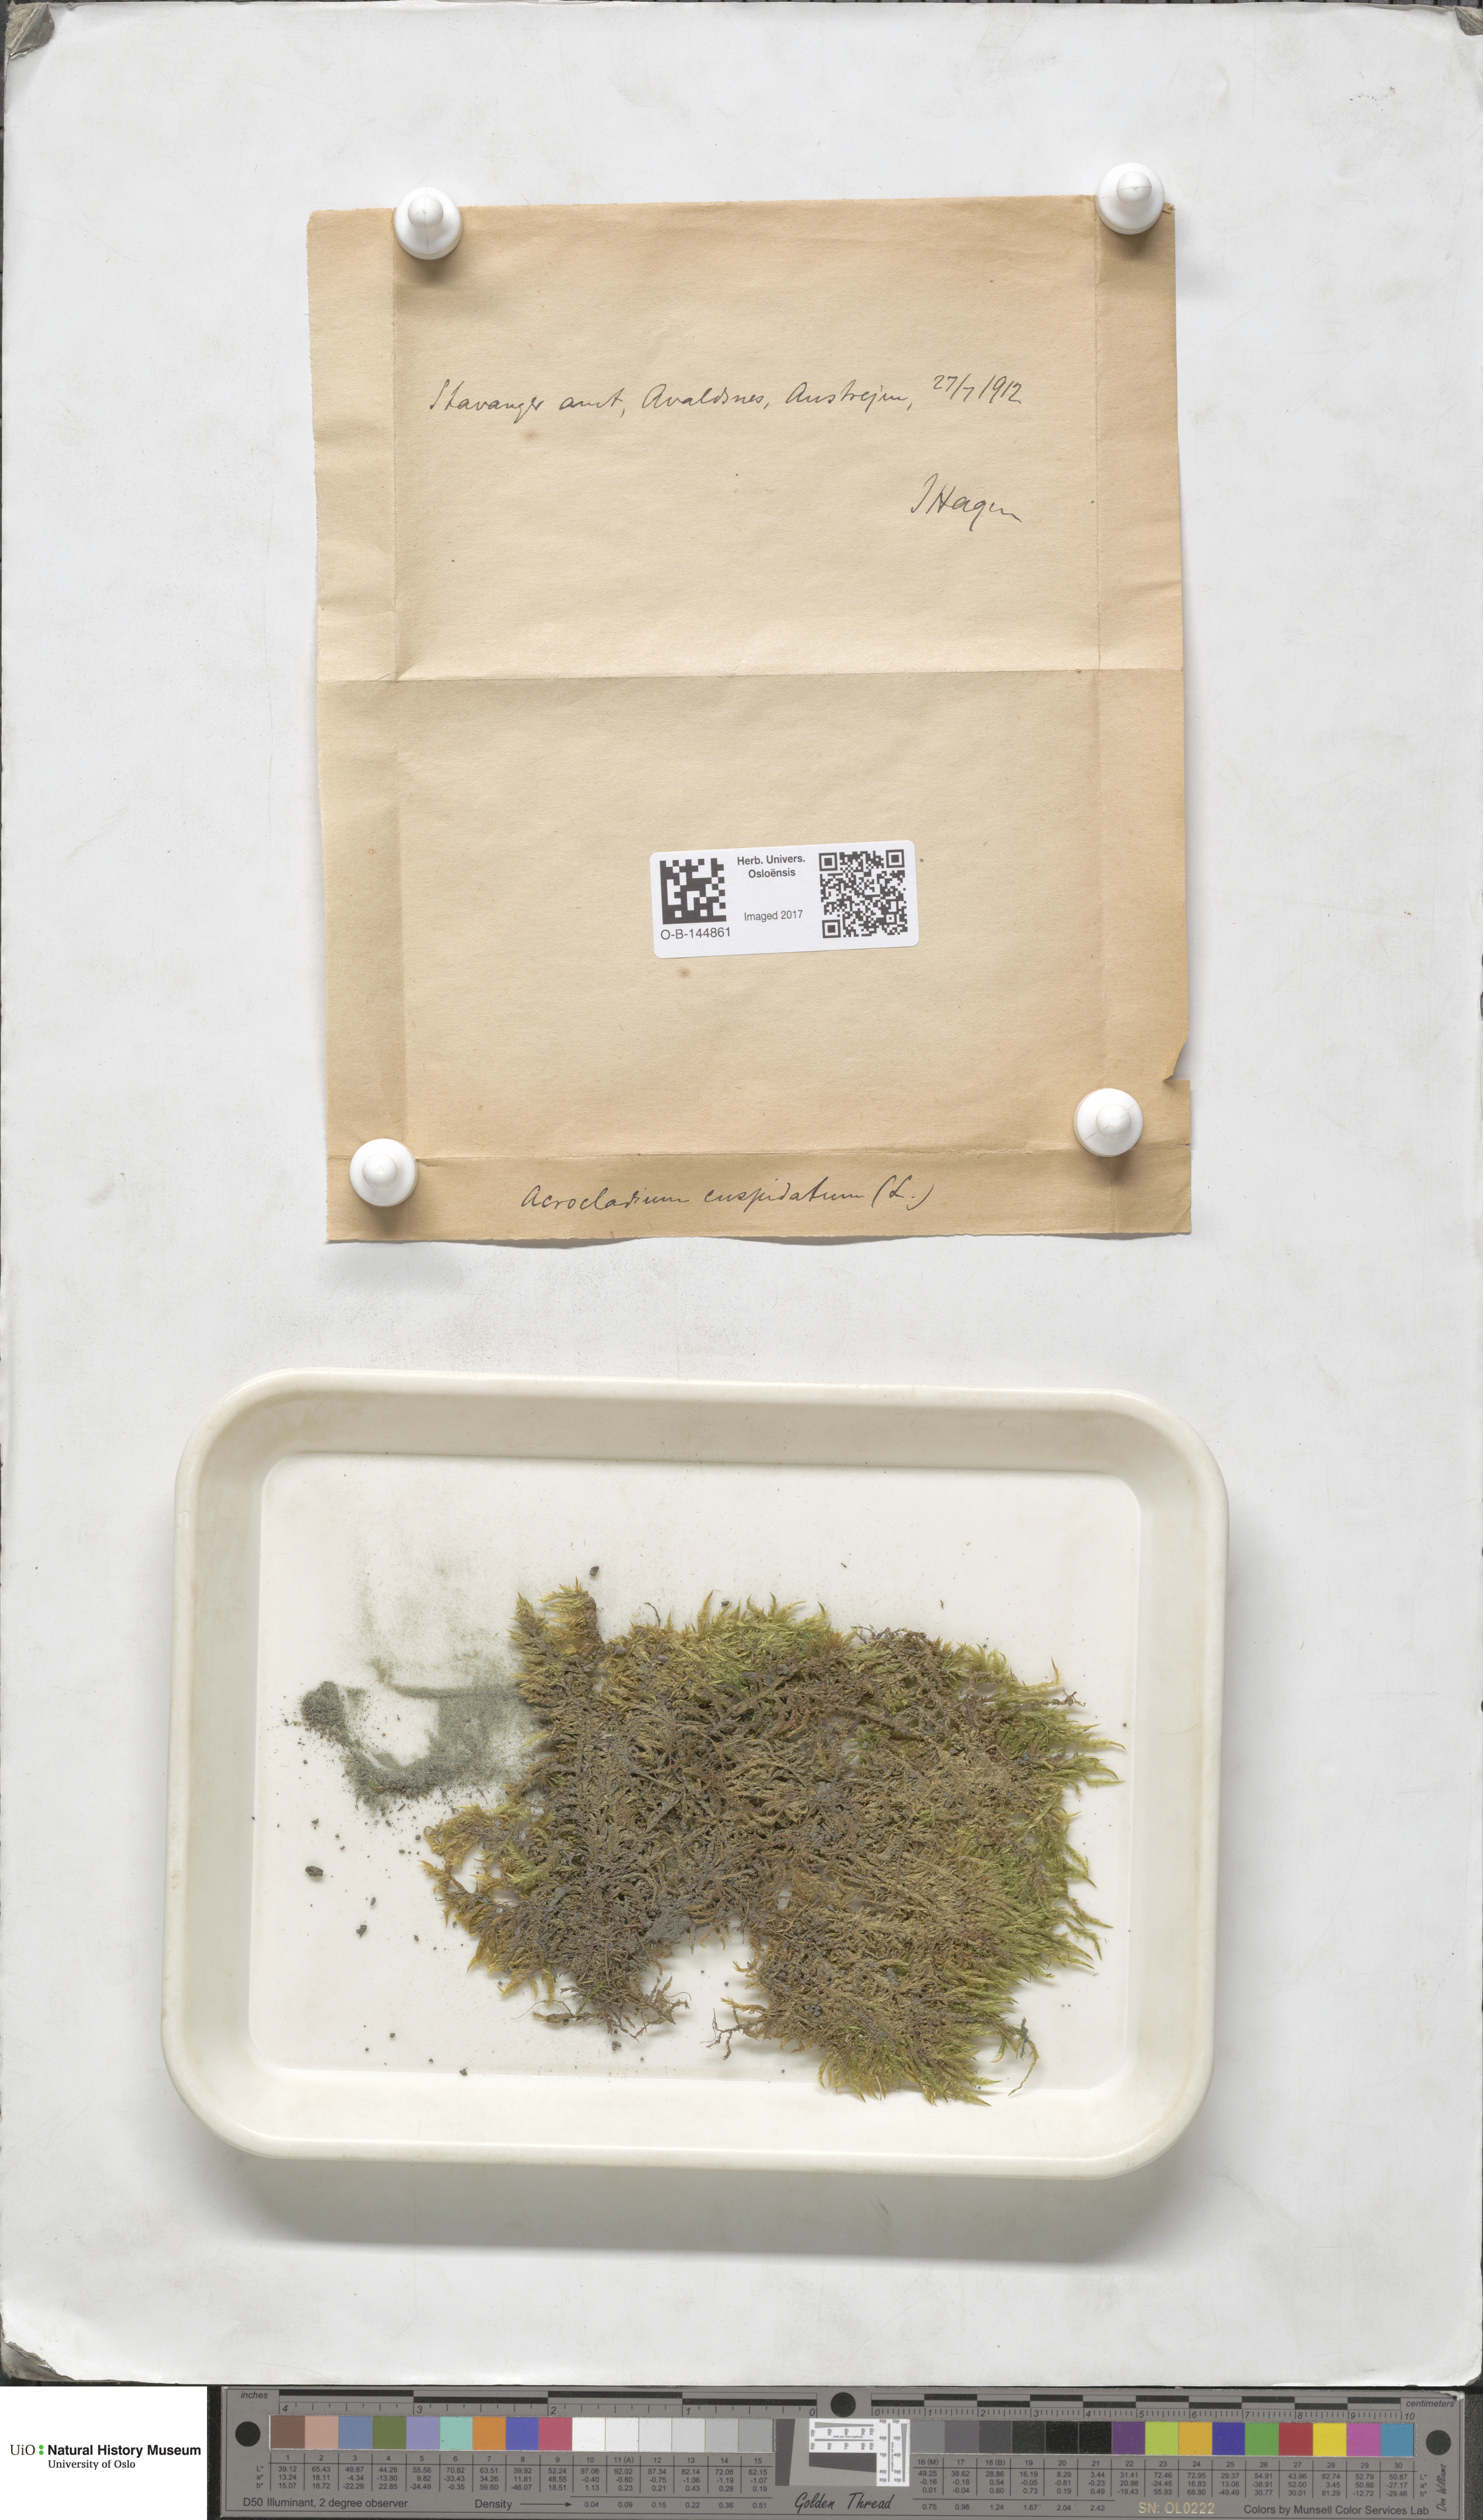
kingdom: Plantae
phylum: Bryophyta
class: Bryopsida
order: Hypnales
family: Pylaisiaceae
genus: Calliergonella
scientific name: Calliergonella cuspidata
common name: Common large wetland moss
